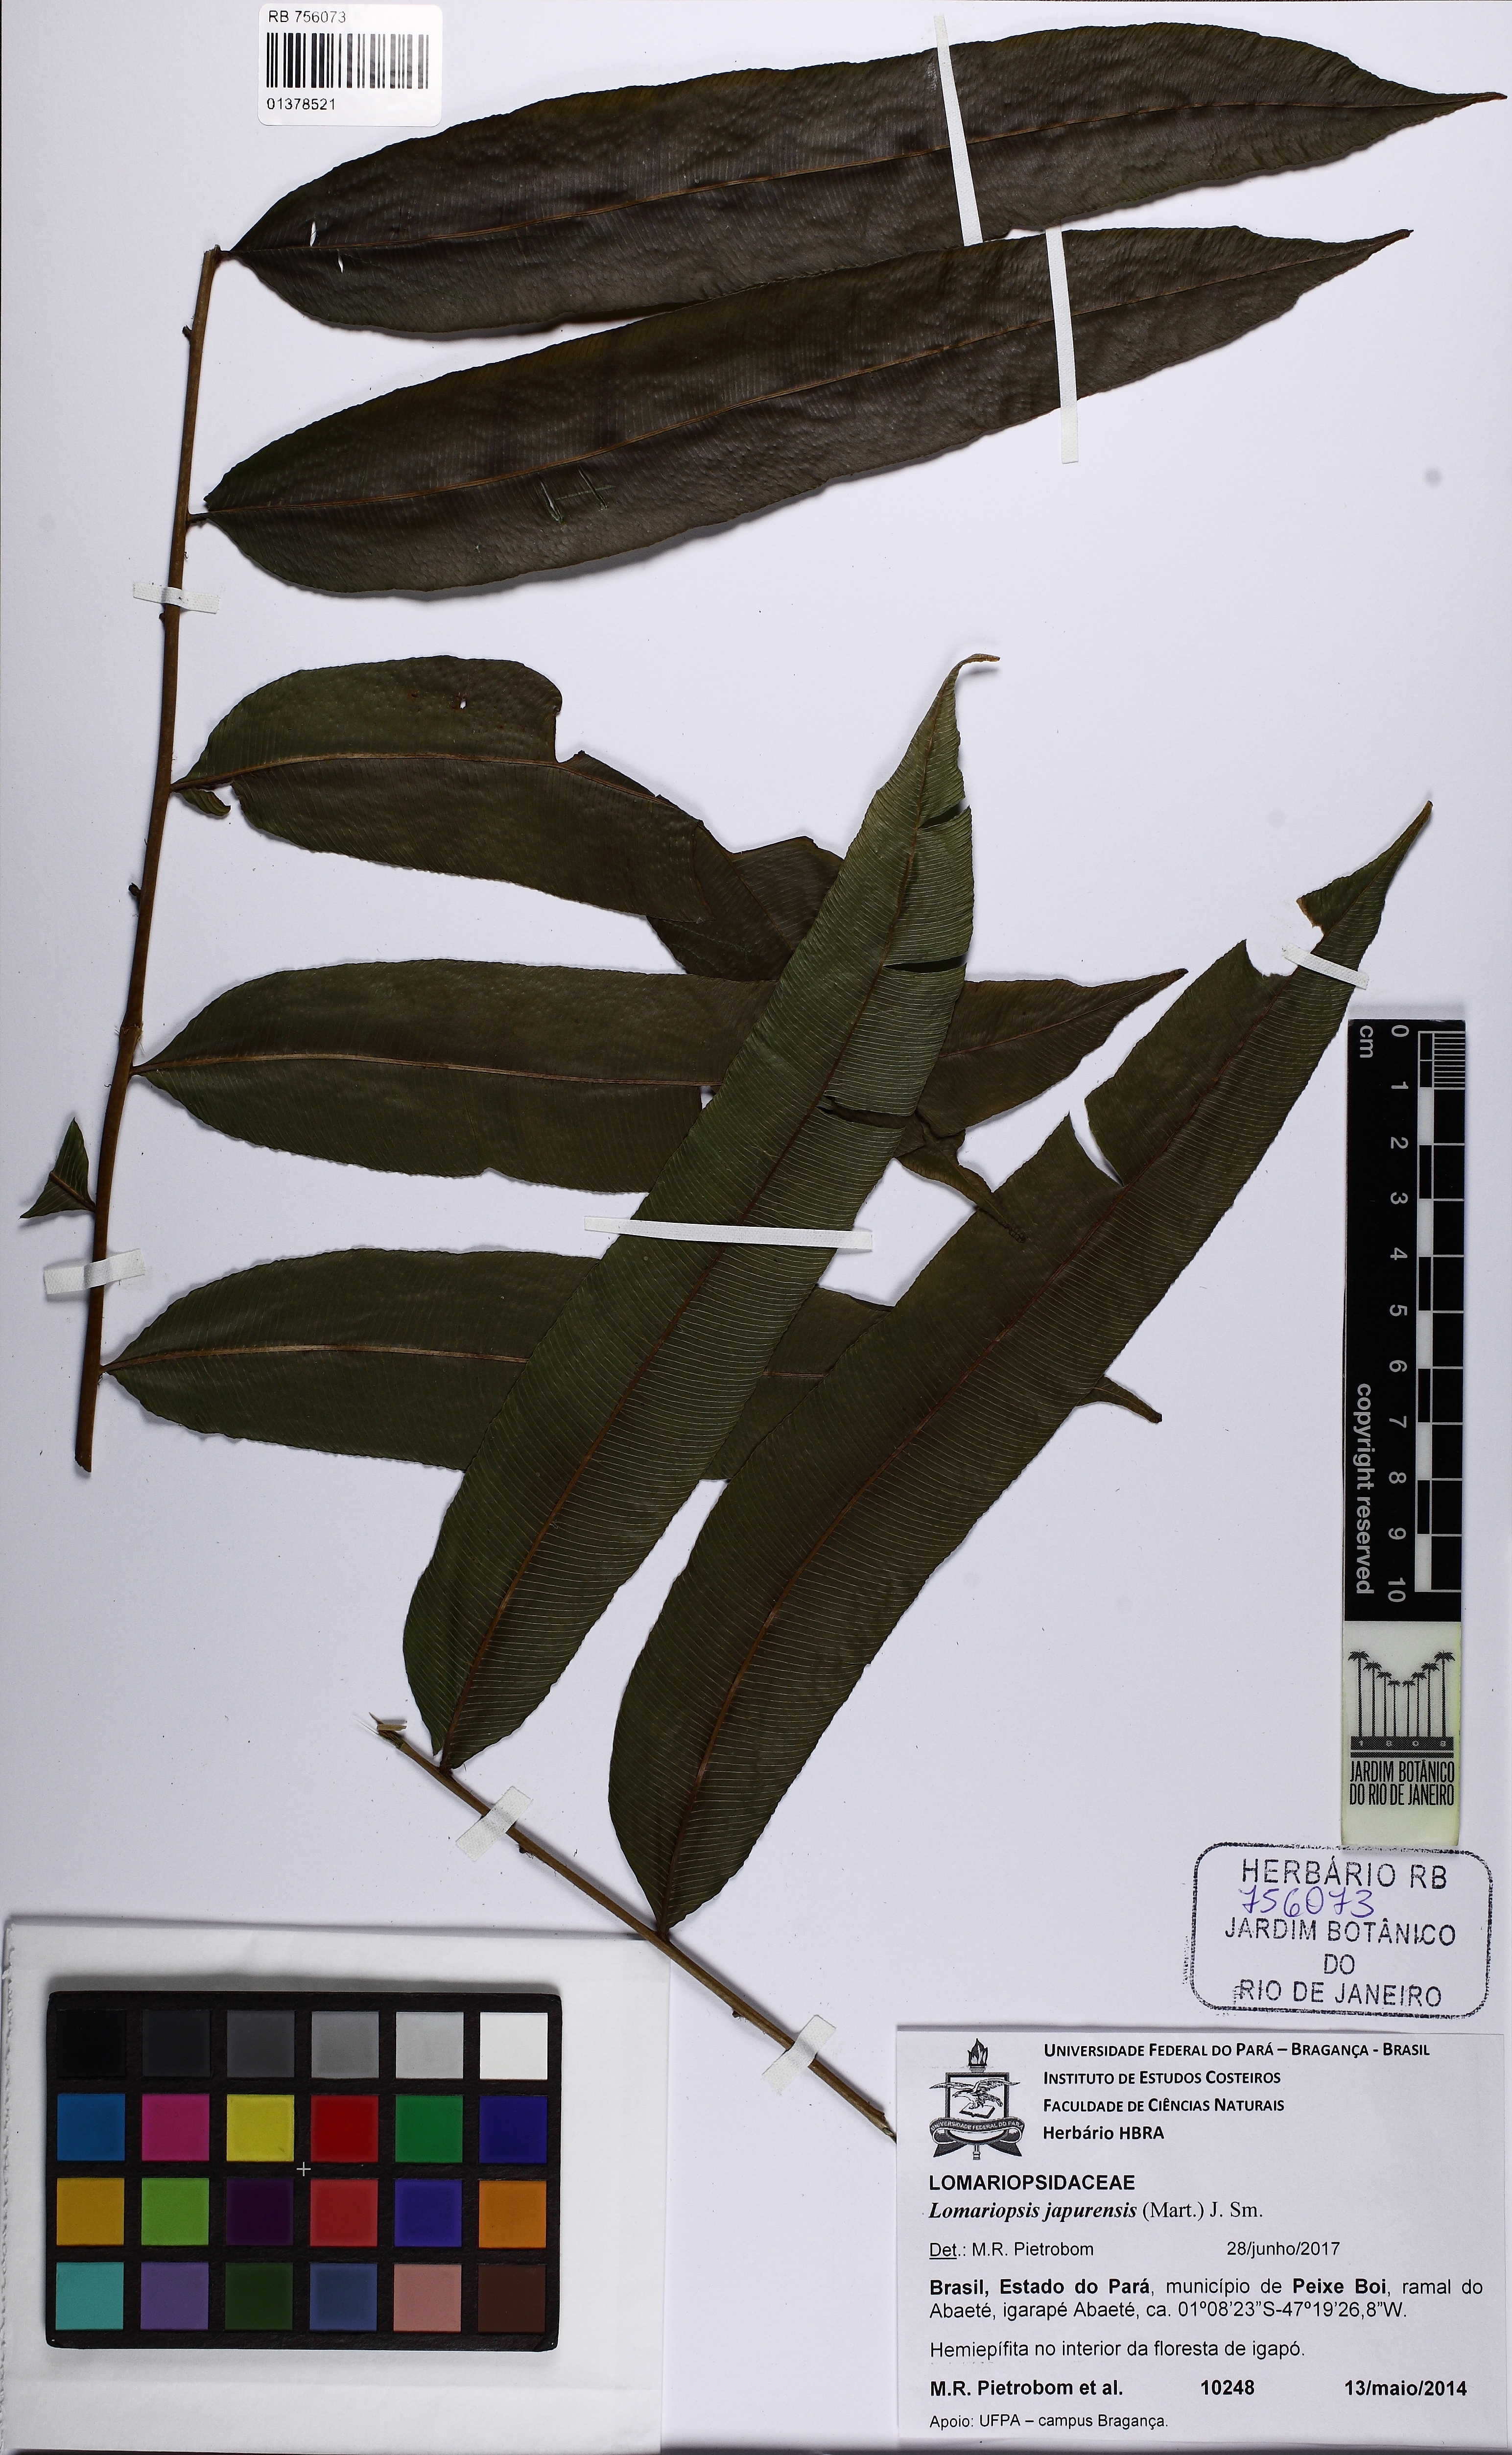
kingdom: Plantae
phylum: Tracheophyta
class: Polypodiopsida
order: Polypodiales
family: Lomariopsidaceae
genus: Lomariopsis
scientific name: Lomariopsis japurensis
